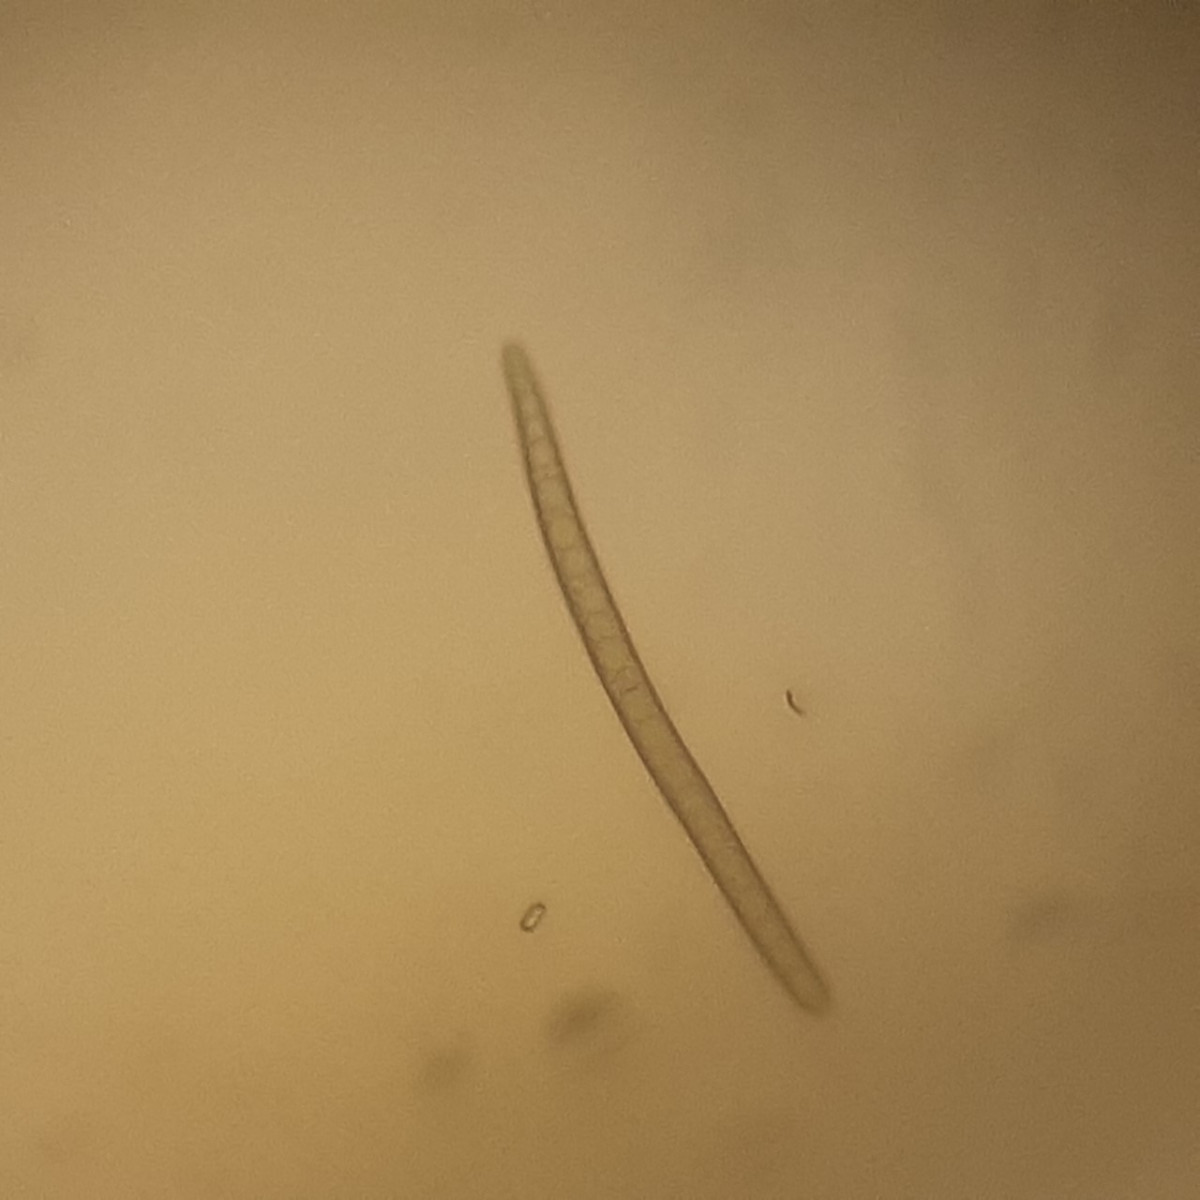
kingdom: Fungi
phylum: Ascomycota
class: Geoglossomycetes
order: Geoglossales
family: Geoglossaceae
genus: Geoglossum
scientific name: Geoglossum fallax
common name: småskællet jordtunge
